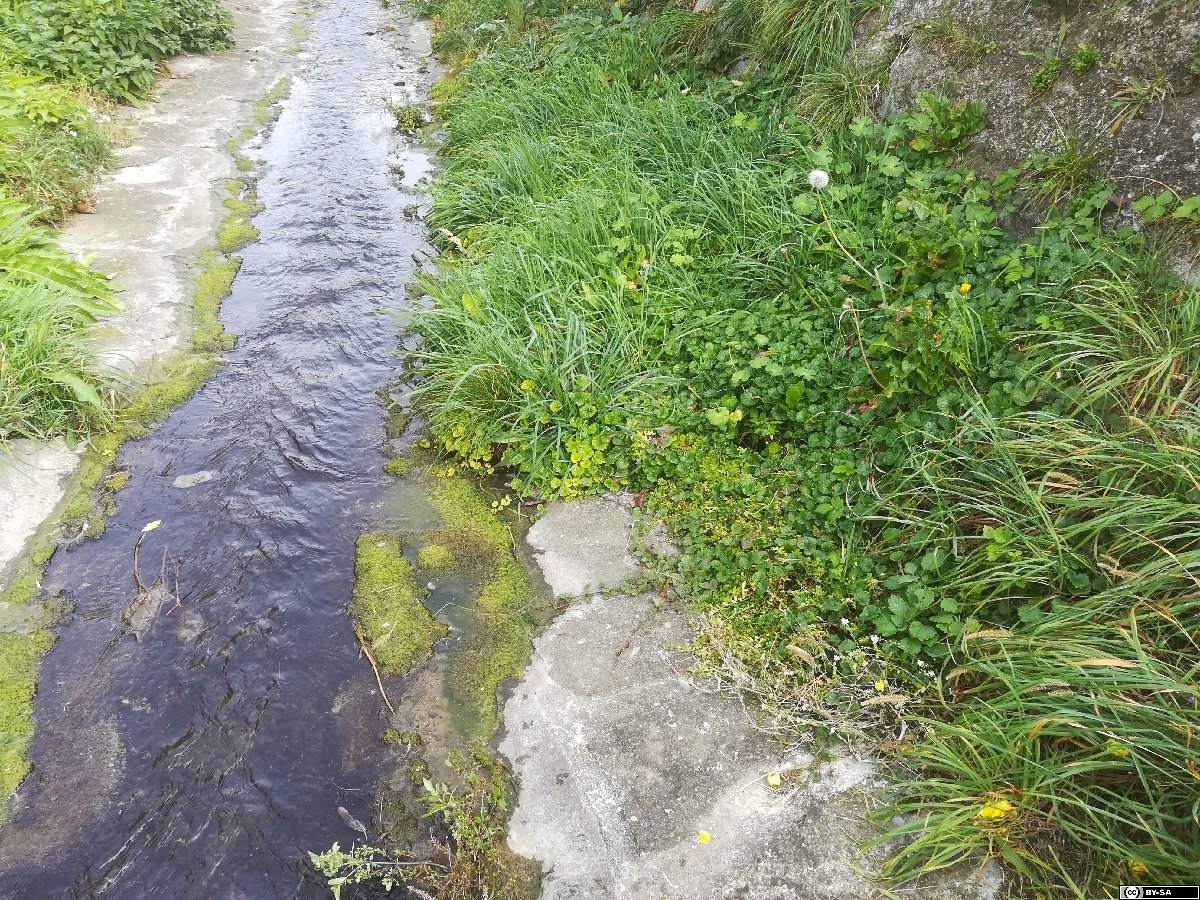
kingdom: Plantae
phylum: Tracheophyta
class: Magnoliopsida
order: Saxifragales
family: Crassulaceae
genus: Sedum
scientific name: Sedum sarmentosum
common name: Stringy stonecrop
